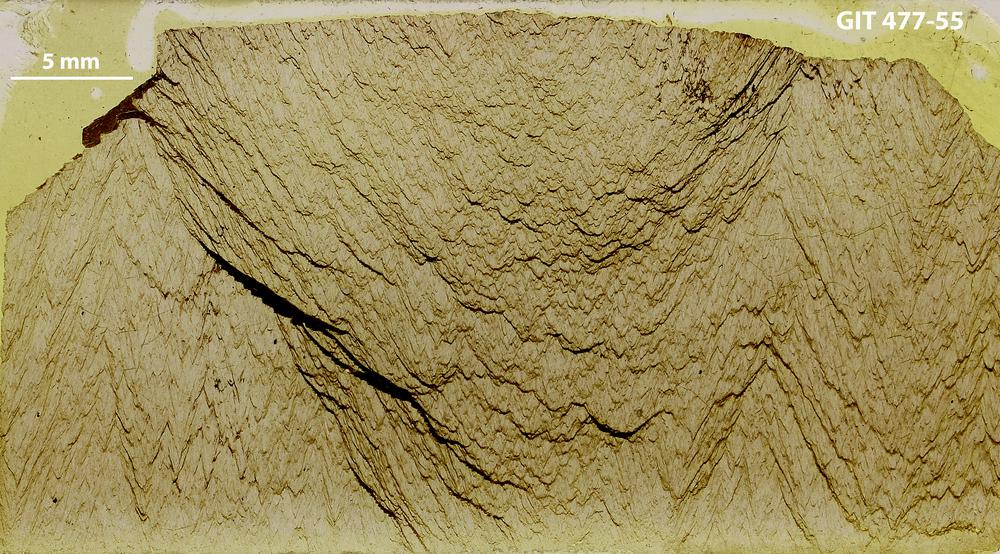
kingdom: Animalia
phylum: Porifera
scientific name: Porifera
